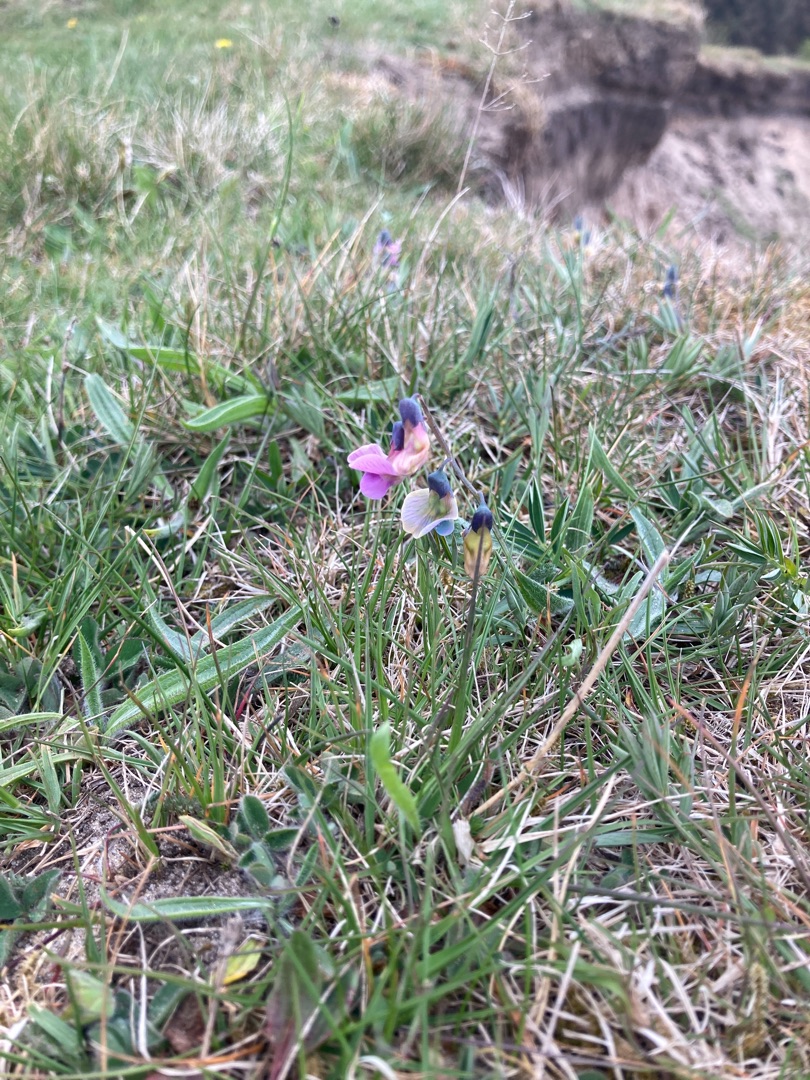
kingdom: Plantae
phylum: Tracheophyta
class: Magnoliopsida
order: Fabales
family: Fabaceae
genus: Lathyrus
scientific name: Lathyrus linifolius
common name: Krat-fladbælg
